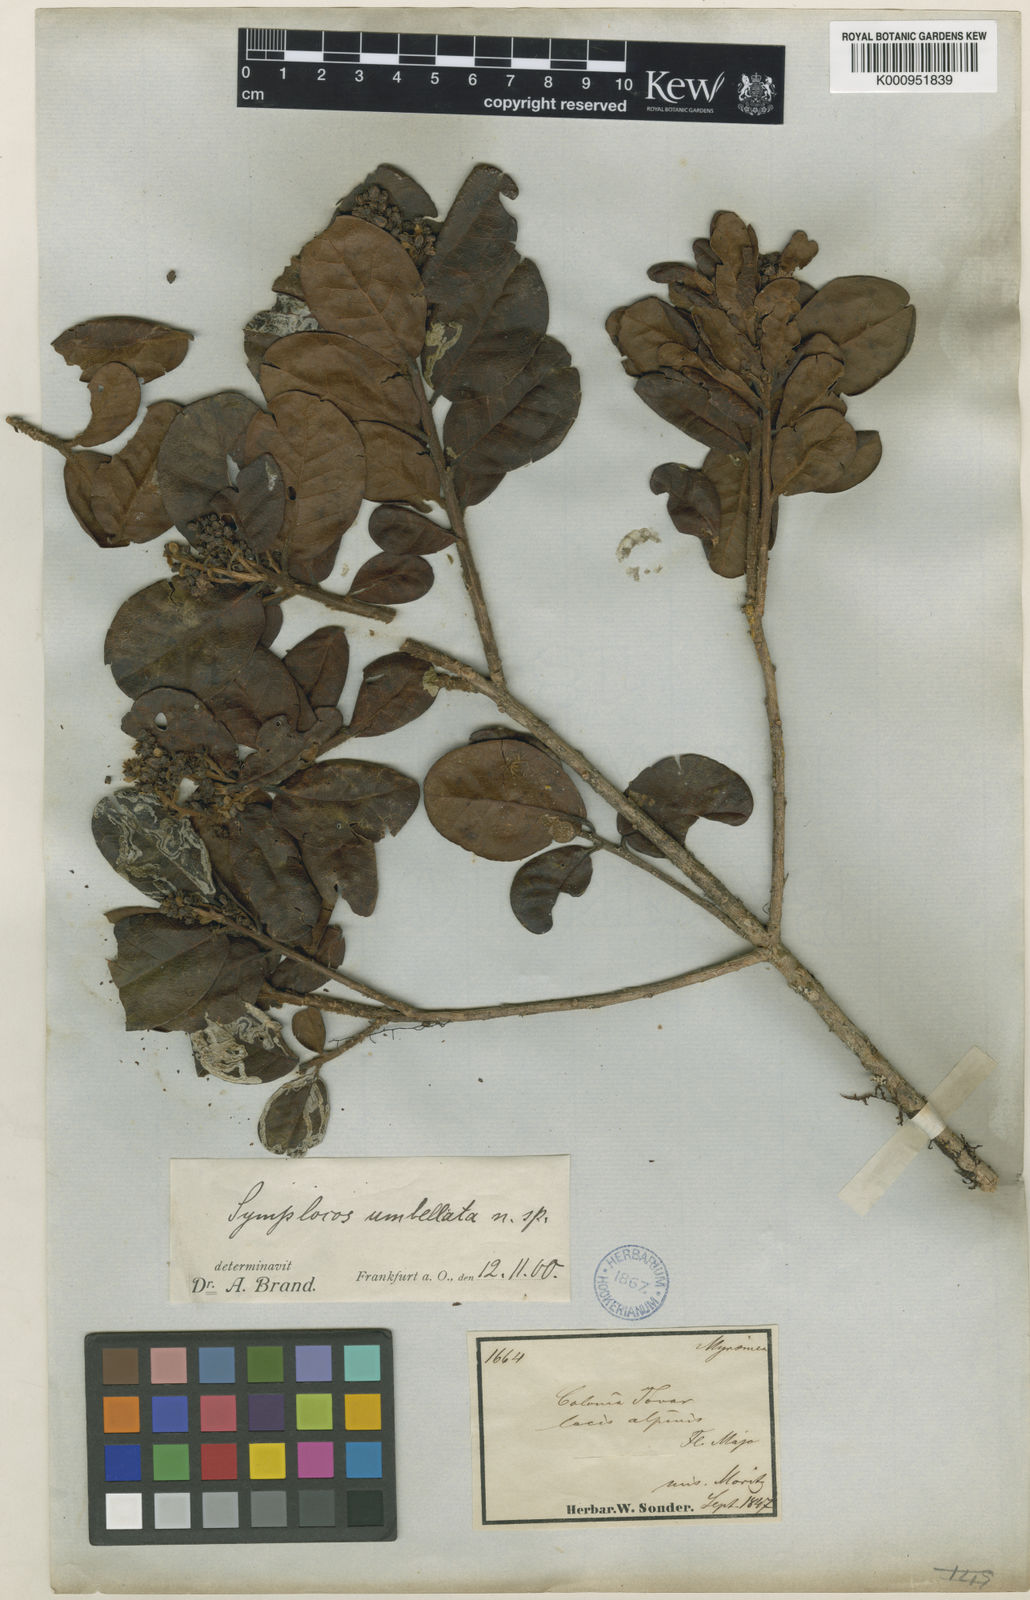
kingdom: Plantae
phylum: Tracheophyta
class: Magnoliopsida
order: Ericales
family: Symplocaceae
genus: Symplocos
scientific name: Symplocos umbellata
